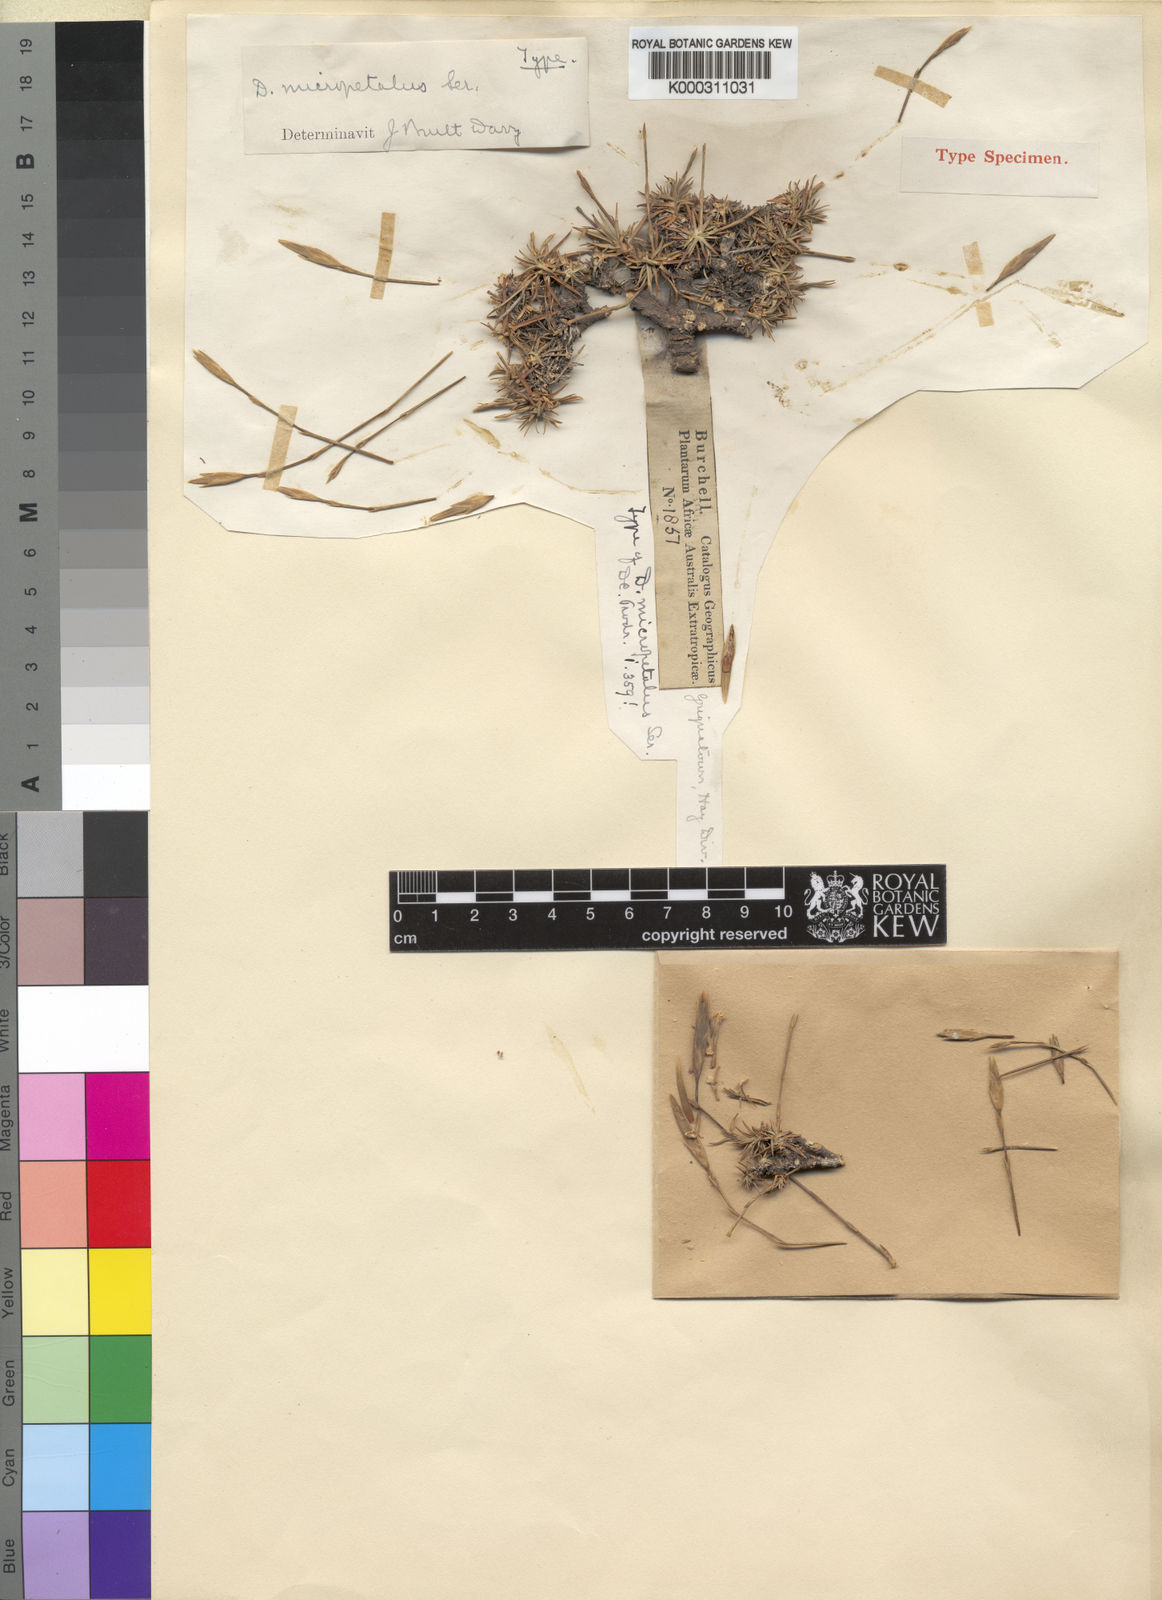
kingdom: Plantae
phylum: Tracheophyta
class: Magnoliopsida
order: Caryophyllales
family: Caryophyllaceae
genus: Dianthus
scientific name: Dianthus micropetalus
